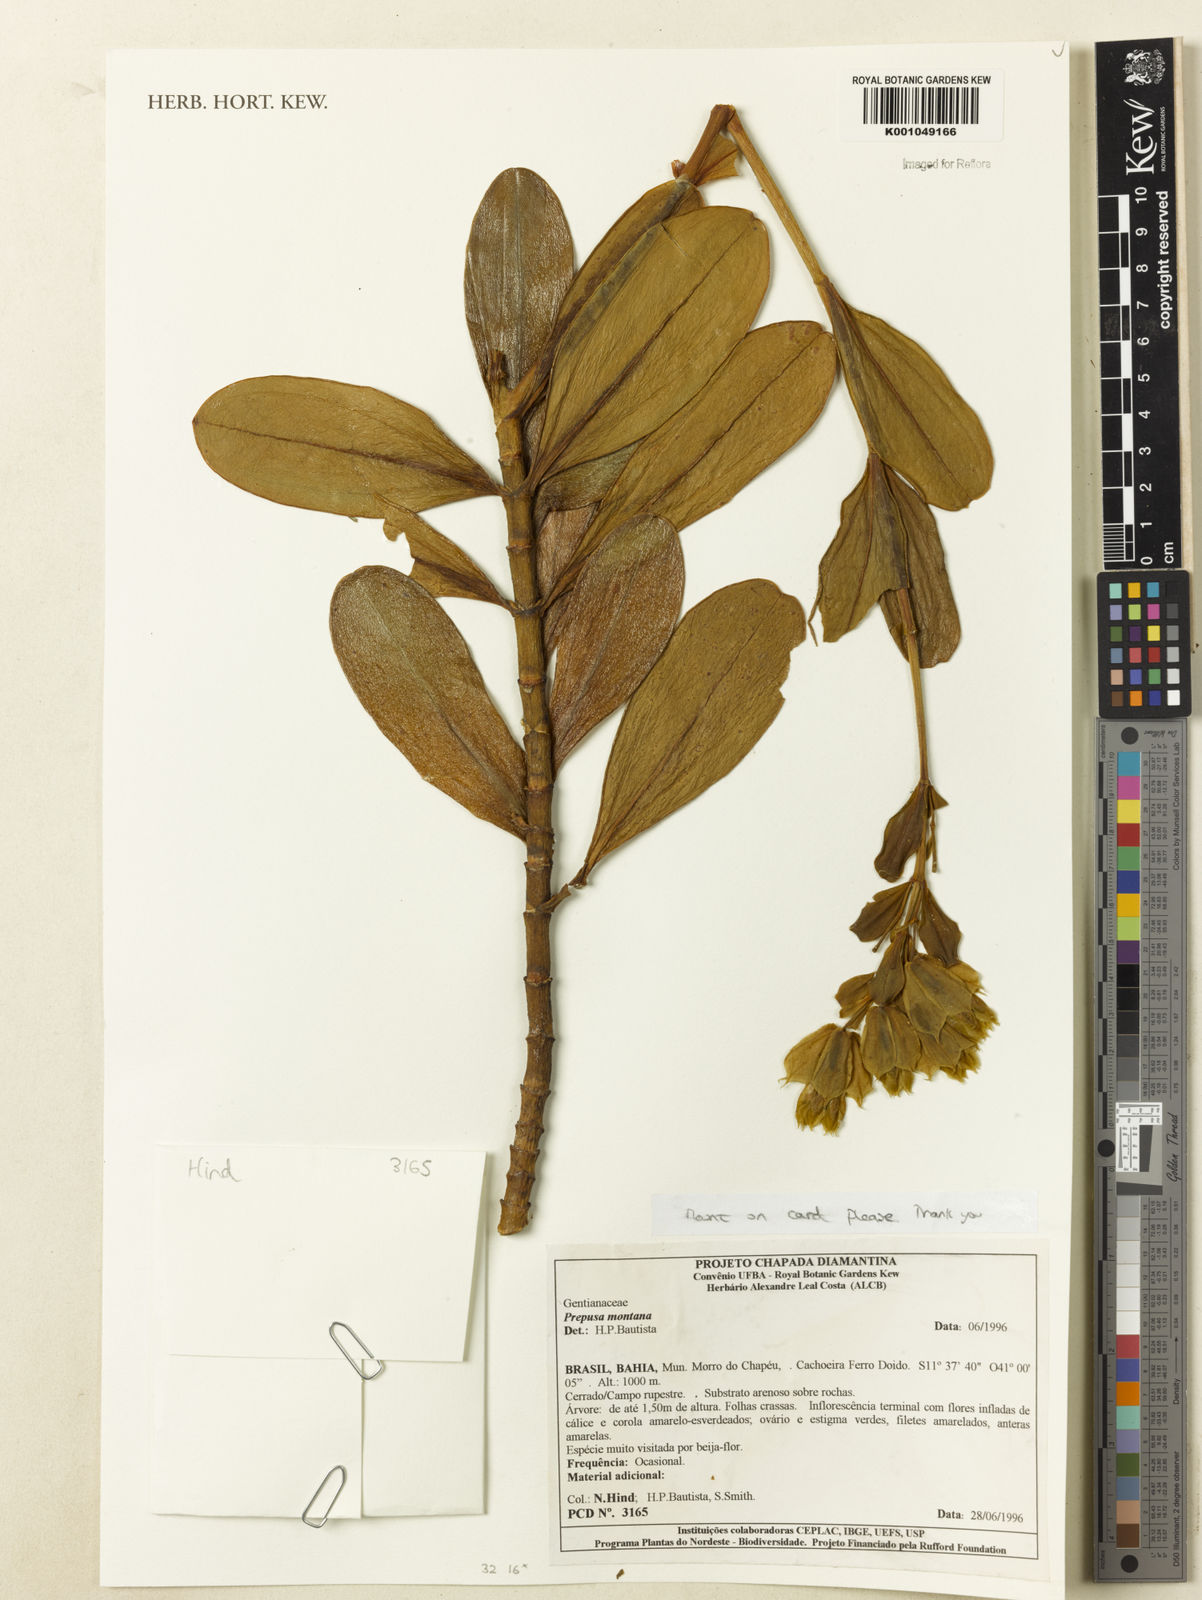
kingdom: Plantae
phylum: Tracheophyta
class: Magnoliopsida
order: Gentianales
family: Gentianaceae
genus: Prepusa
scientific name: Prepusa montana
